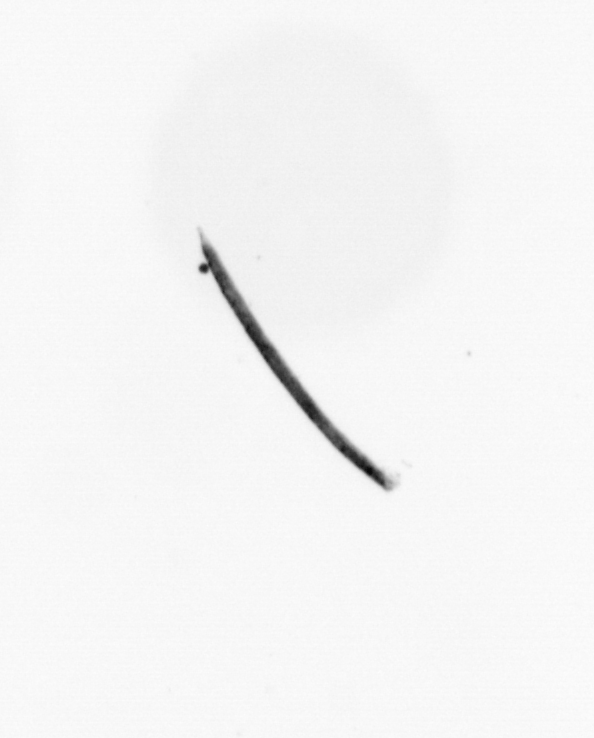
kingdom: Bacteria
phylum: Cyanobacteria
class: Cyanobacteriia
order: Cyanobacteriales
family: Microcoleaceae
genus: Trichodesmium
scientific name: Trichodesmium
